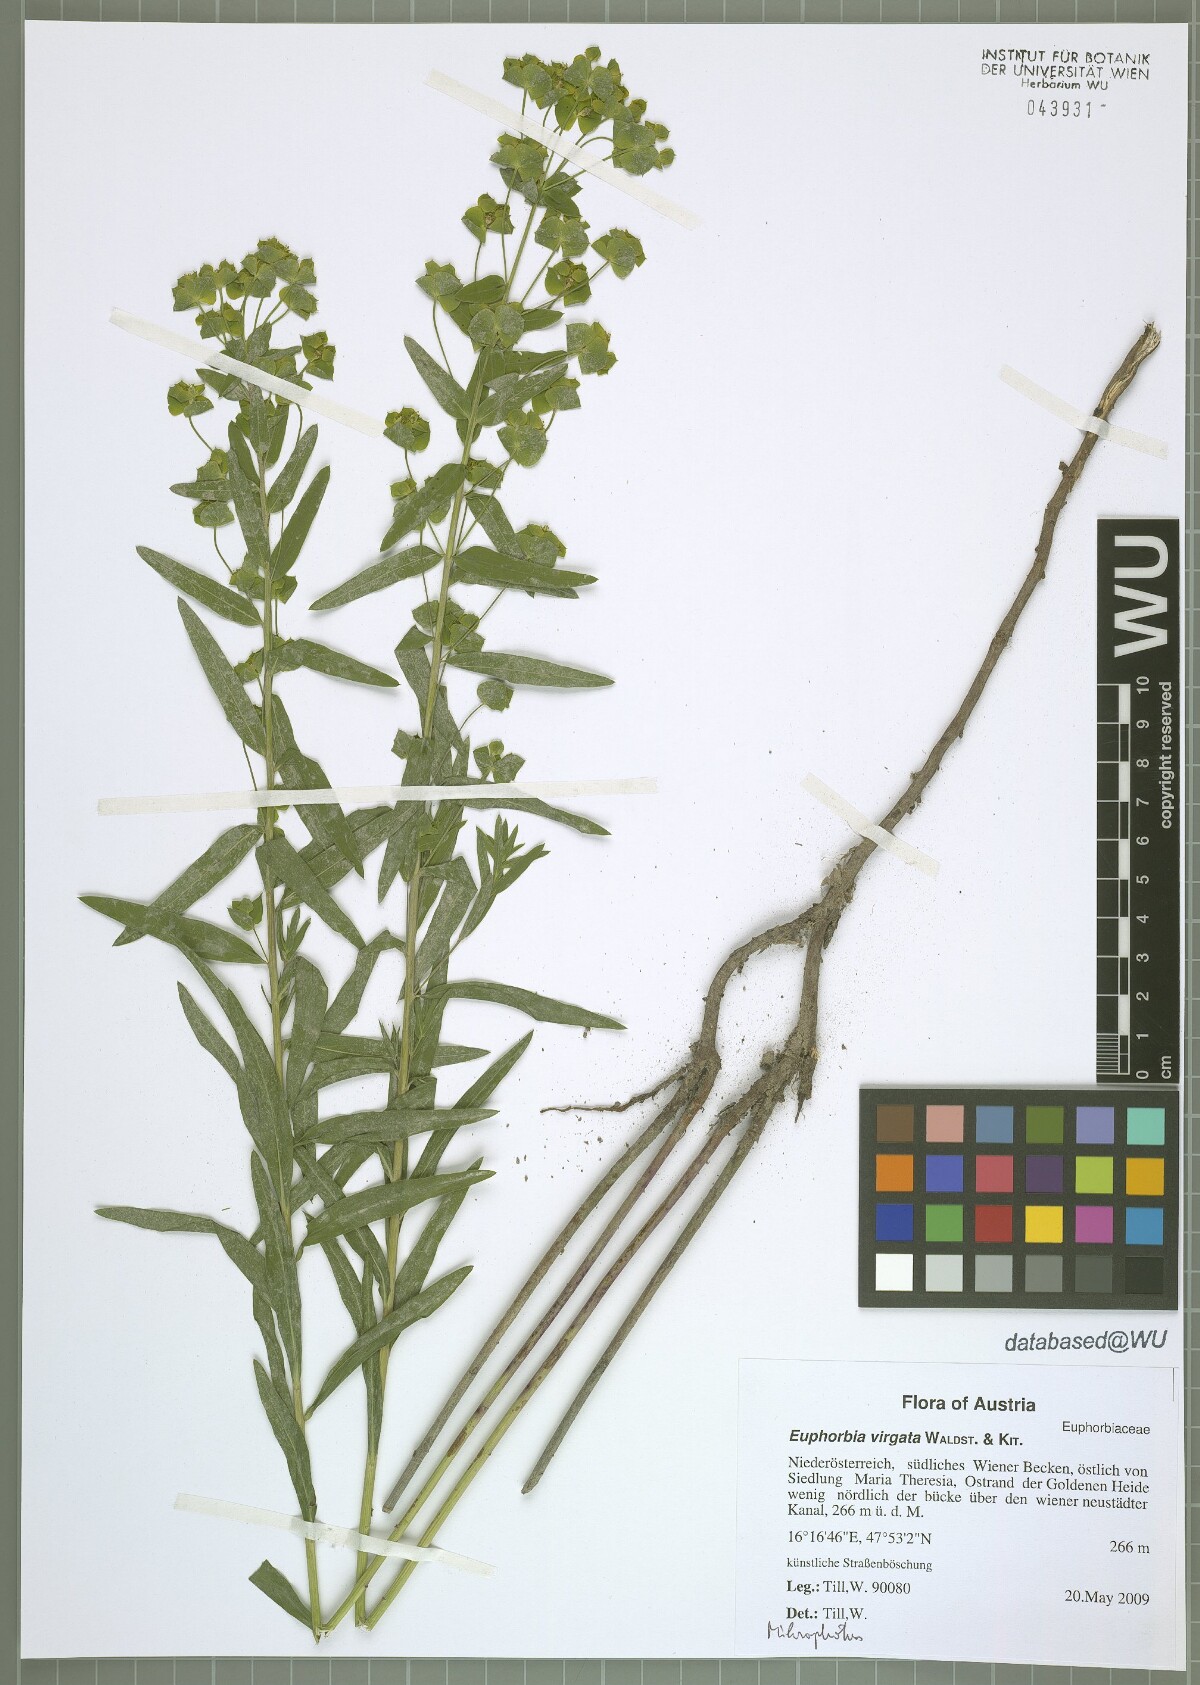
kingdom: Plantae
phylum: Tracheophyta
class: Magnoliopsida
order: Malpighiales
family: Euphorbiaceae
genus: Euphorbia
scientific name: Euphorbia virgata
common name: Leafy spurge
